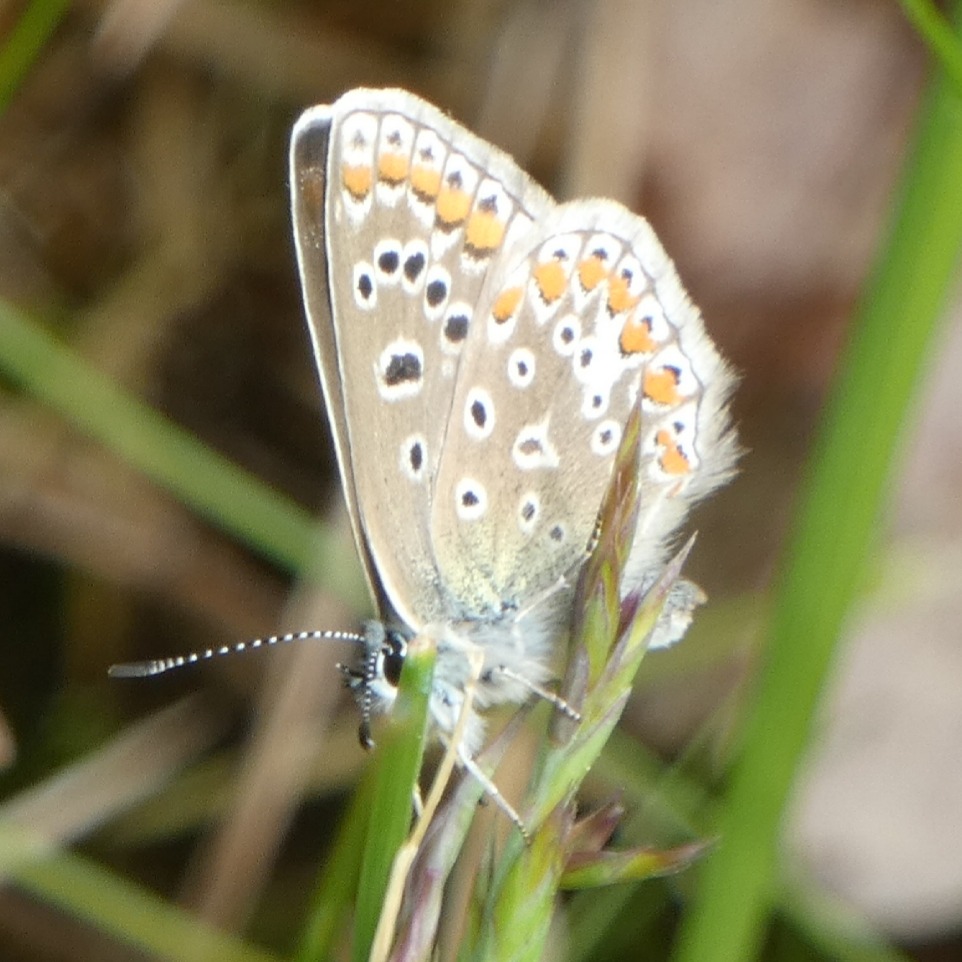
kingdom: Animalia
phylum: Arthropoda
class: Insecta
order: Lepidoptera
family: Lycaenidae
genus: Polyommatus
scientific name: Polyommatus icarus
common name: Almindelig blåfugl
